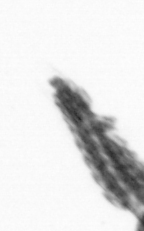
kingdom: Animalia
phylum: Annelida
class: Polychaeta
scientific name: Polychaeta
